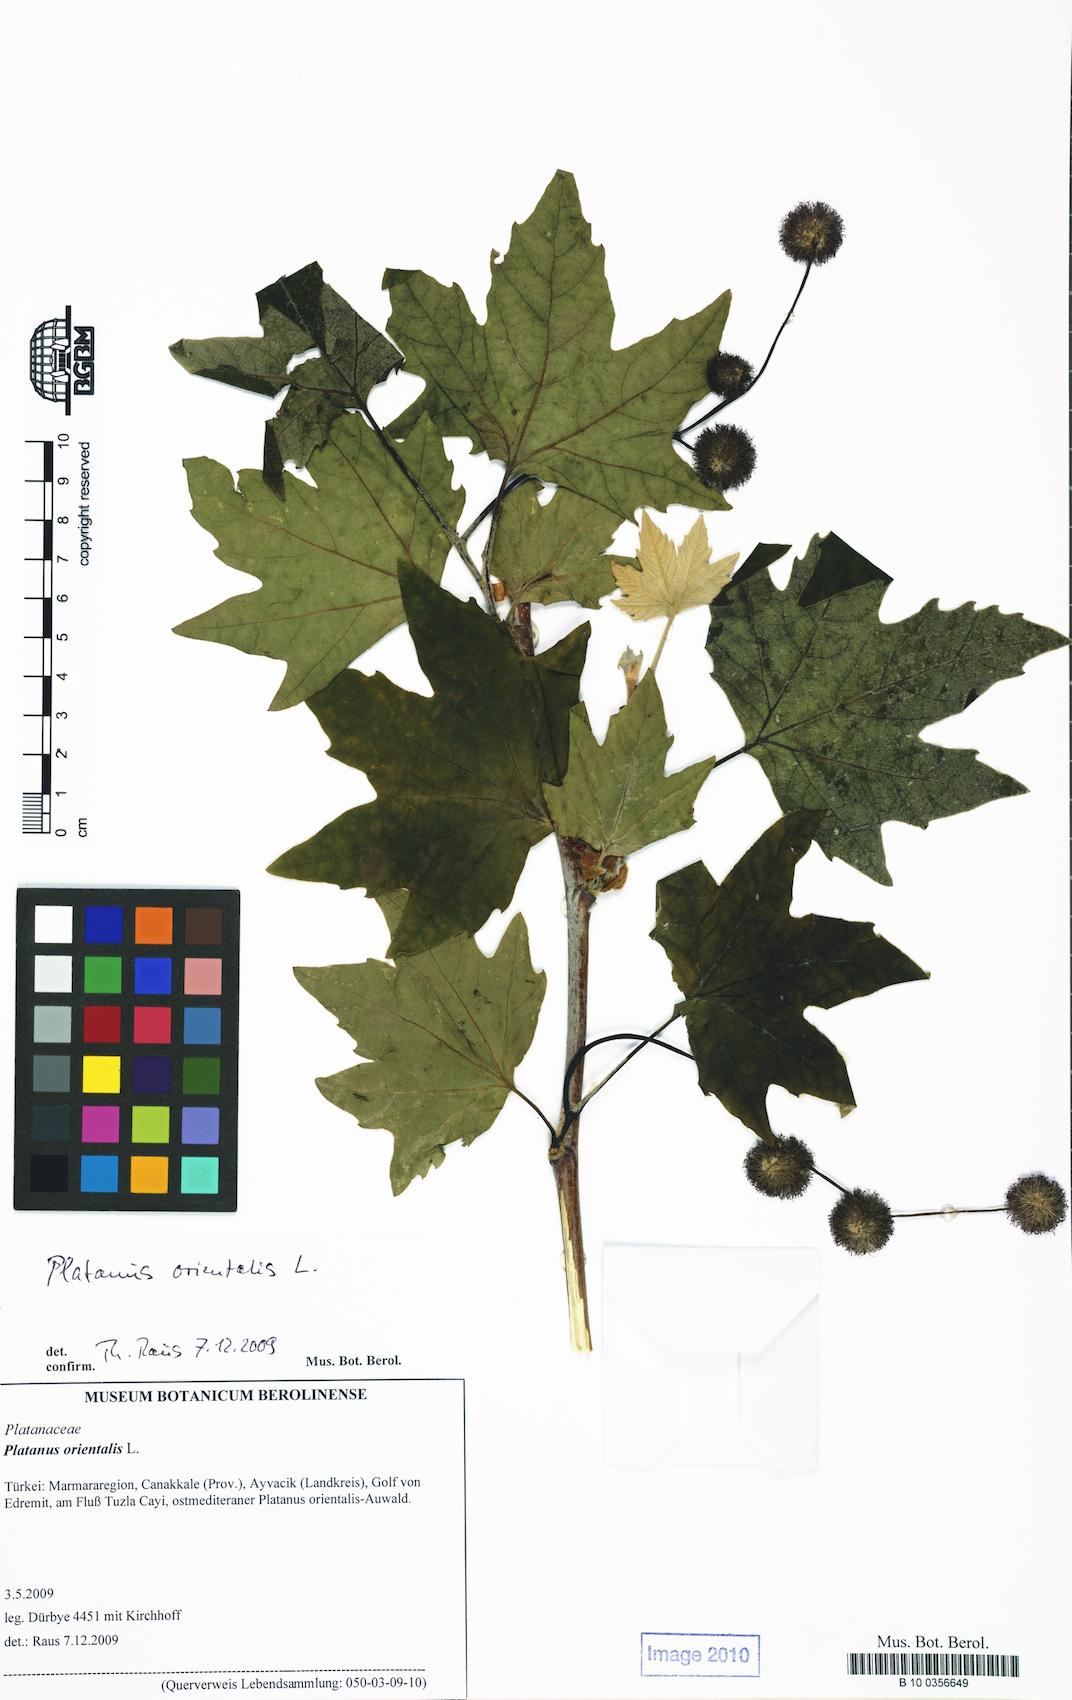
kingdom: Plantae
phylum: Tracheophyta
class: Magnoliopsida
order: Proteales
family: Platanaceae
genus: Platanus
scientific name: Platanus orientalis
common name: Oriental plane
